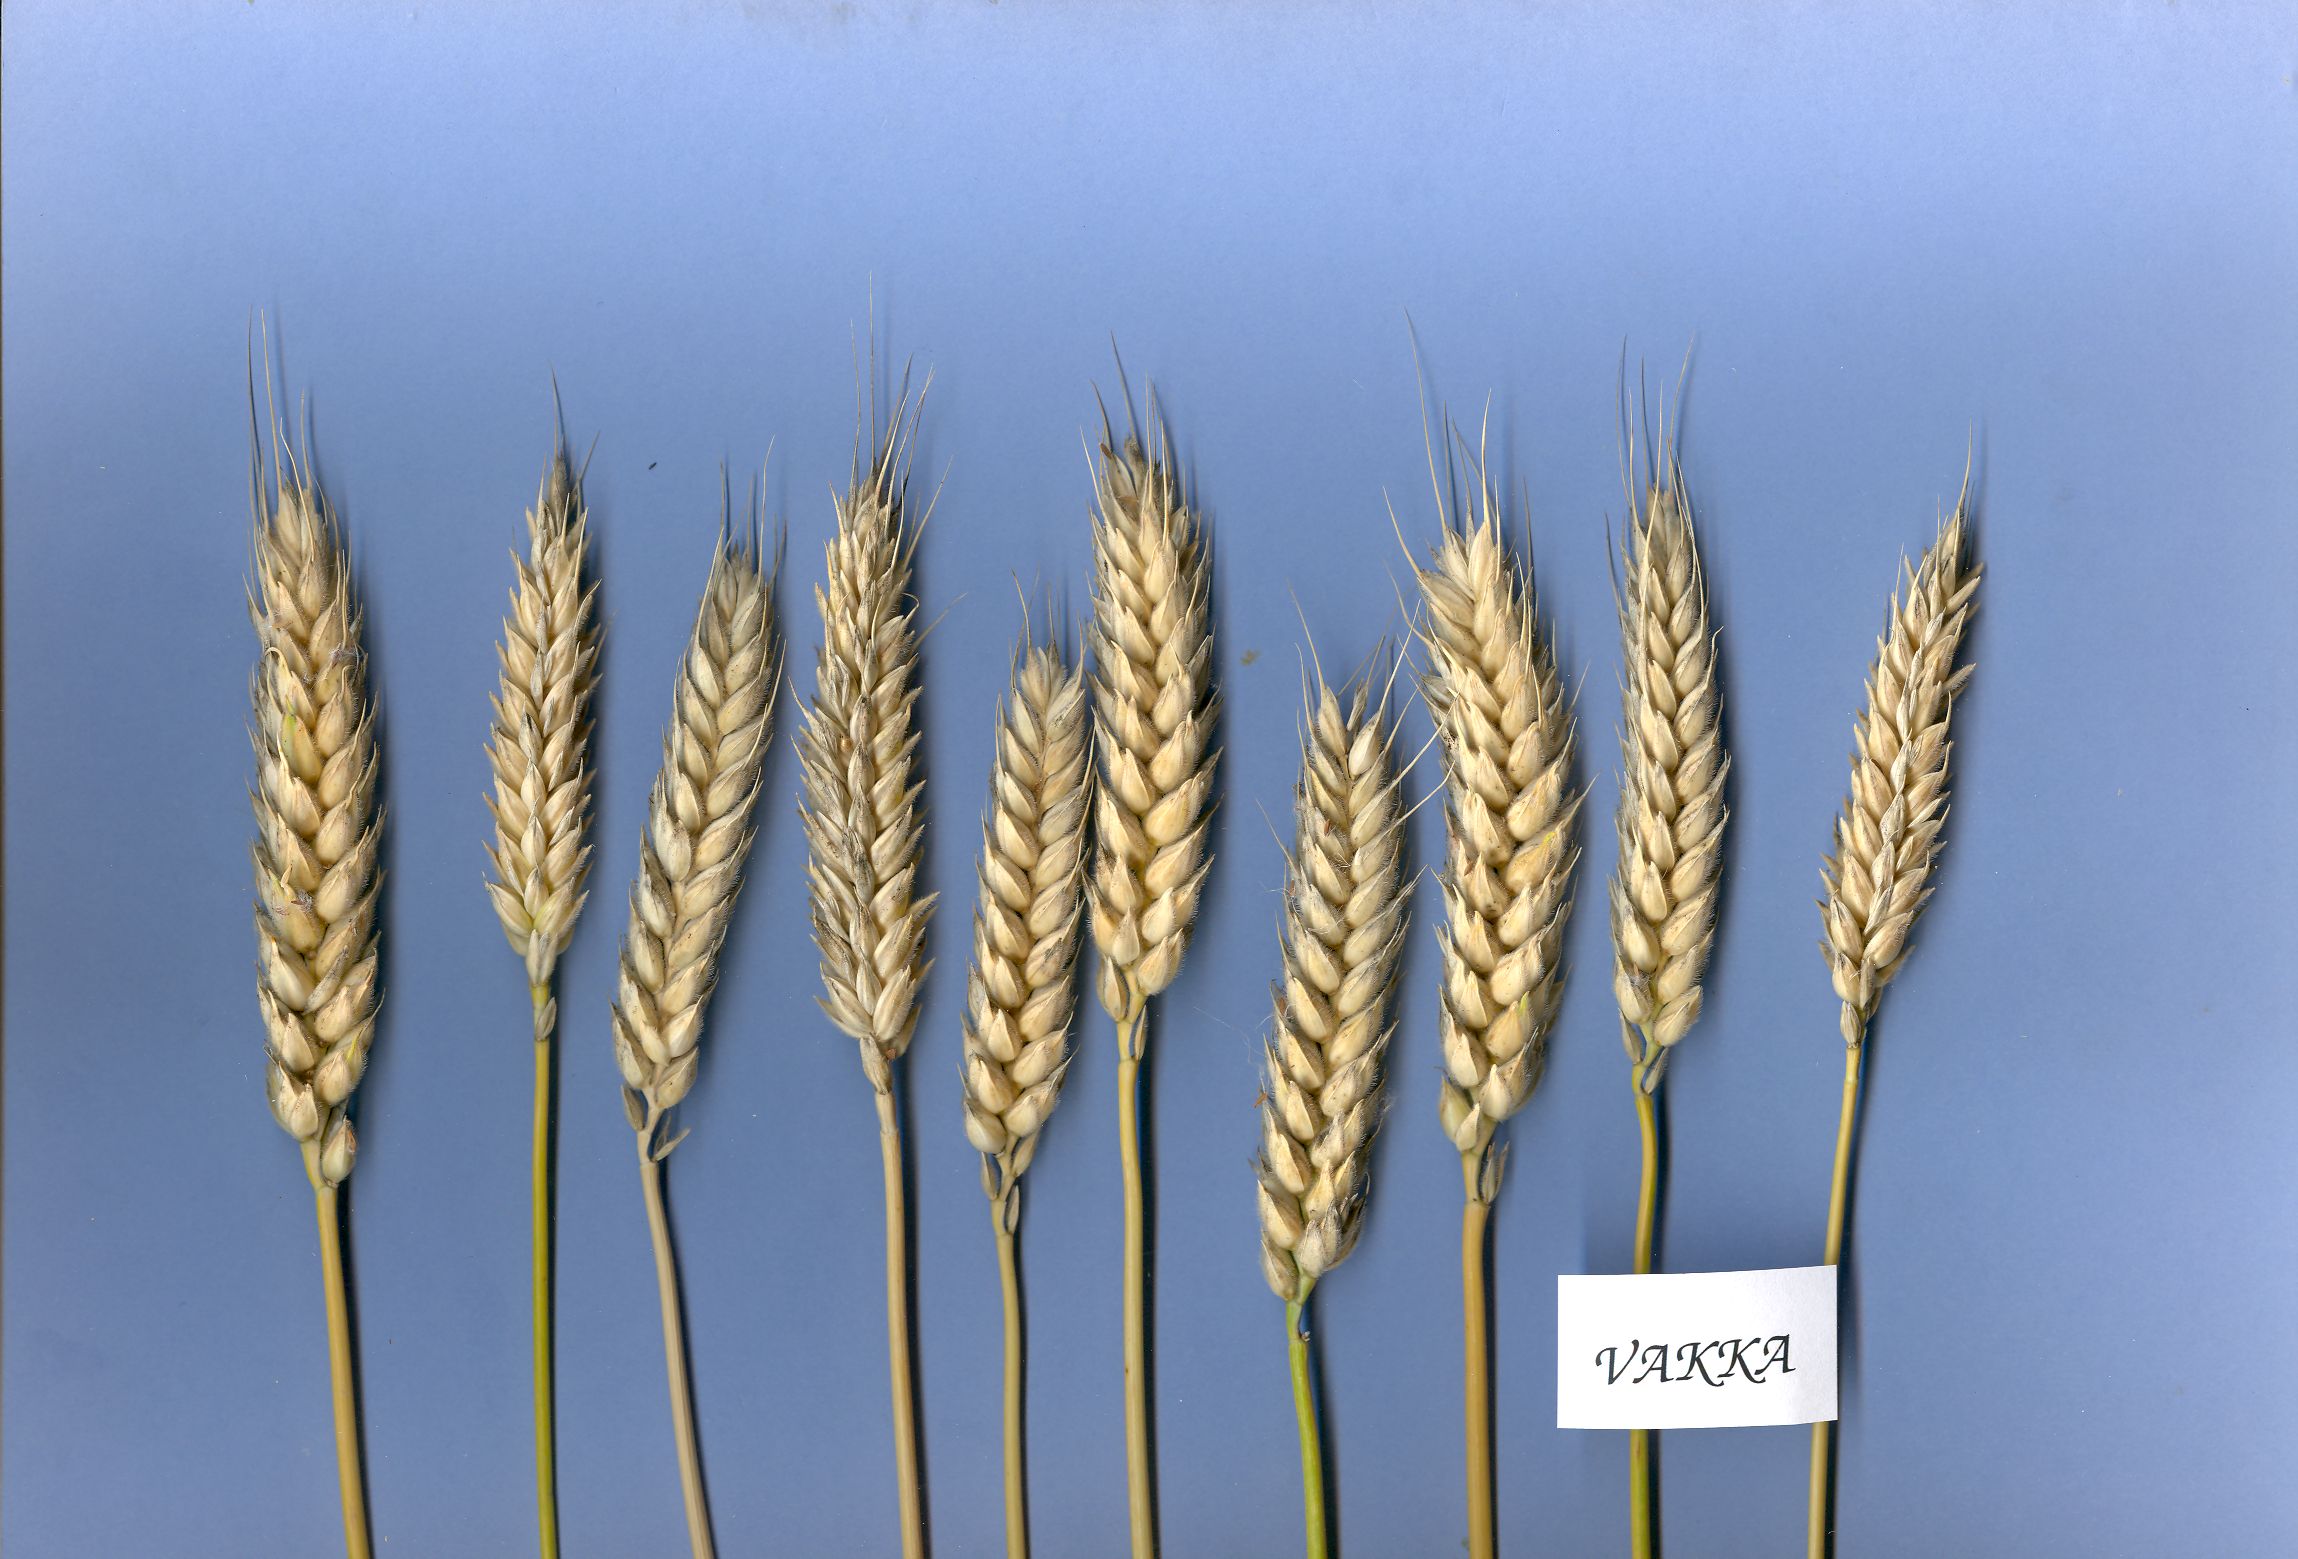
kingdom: Plantae
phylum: Tracheophyta
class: Liliopsida
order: Poales
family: Poaceae
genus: Triticum
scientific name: Triticum aestivum
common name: Common wheat
